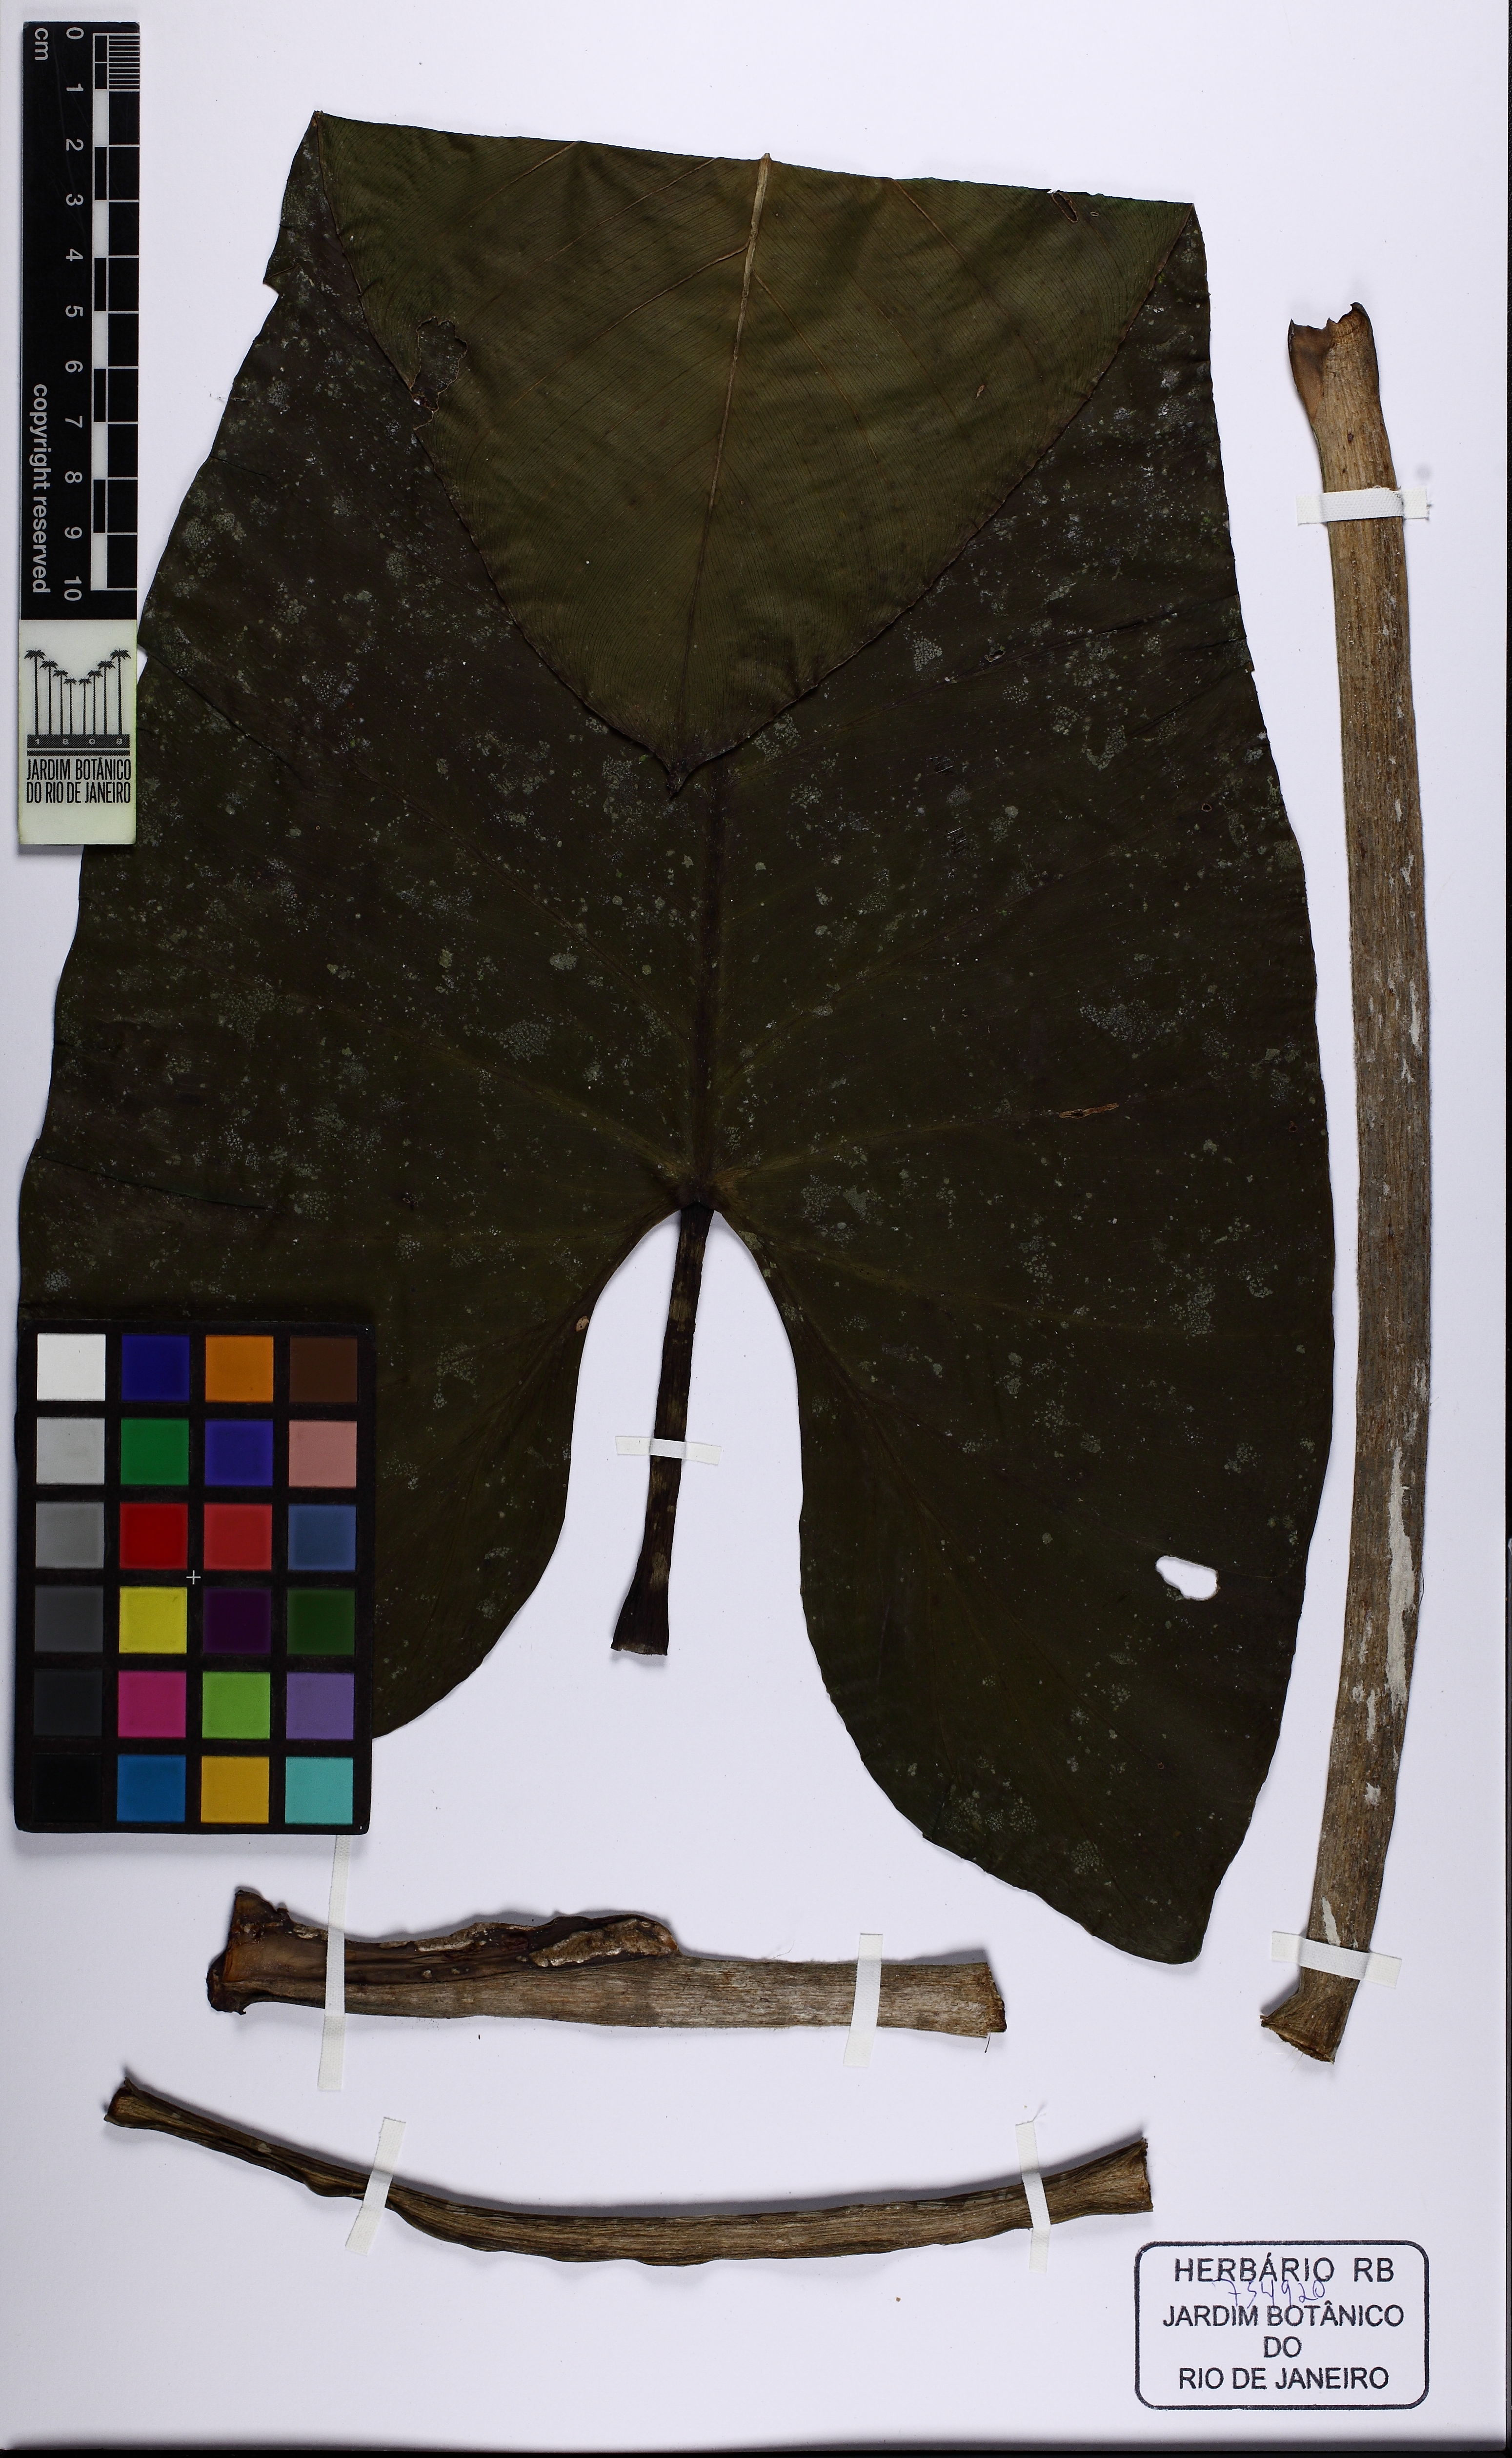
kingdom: Plantae
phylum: Tracheophyta
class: Liliopsida
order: Alismatales
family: Araceae
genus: Philodendron
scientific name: Philodendron myrmecophilum
